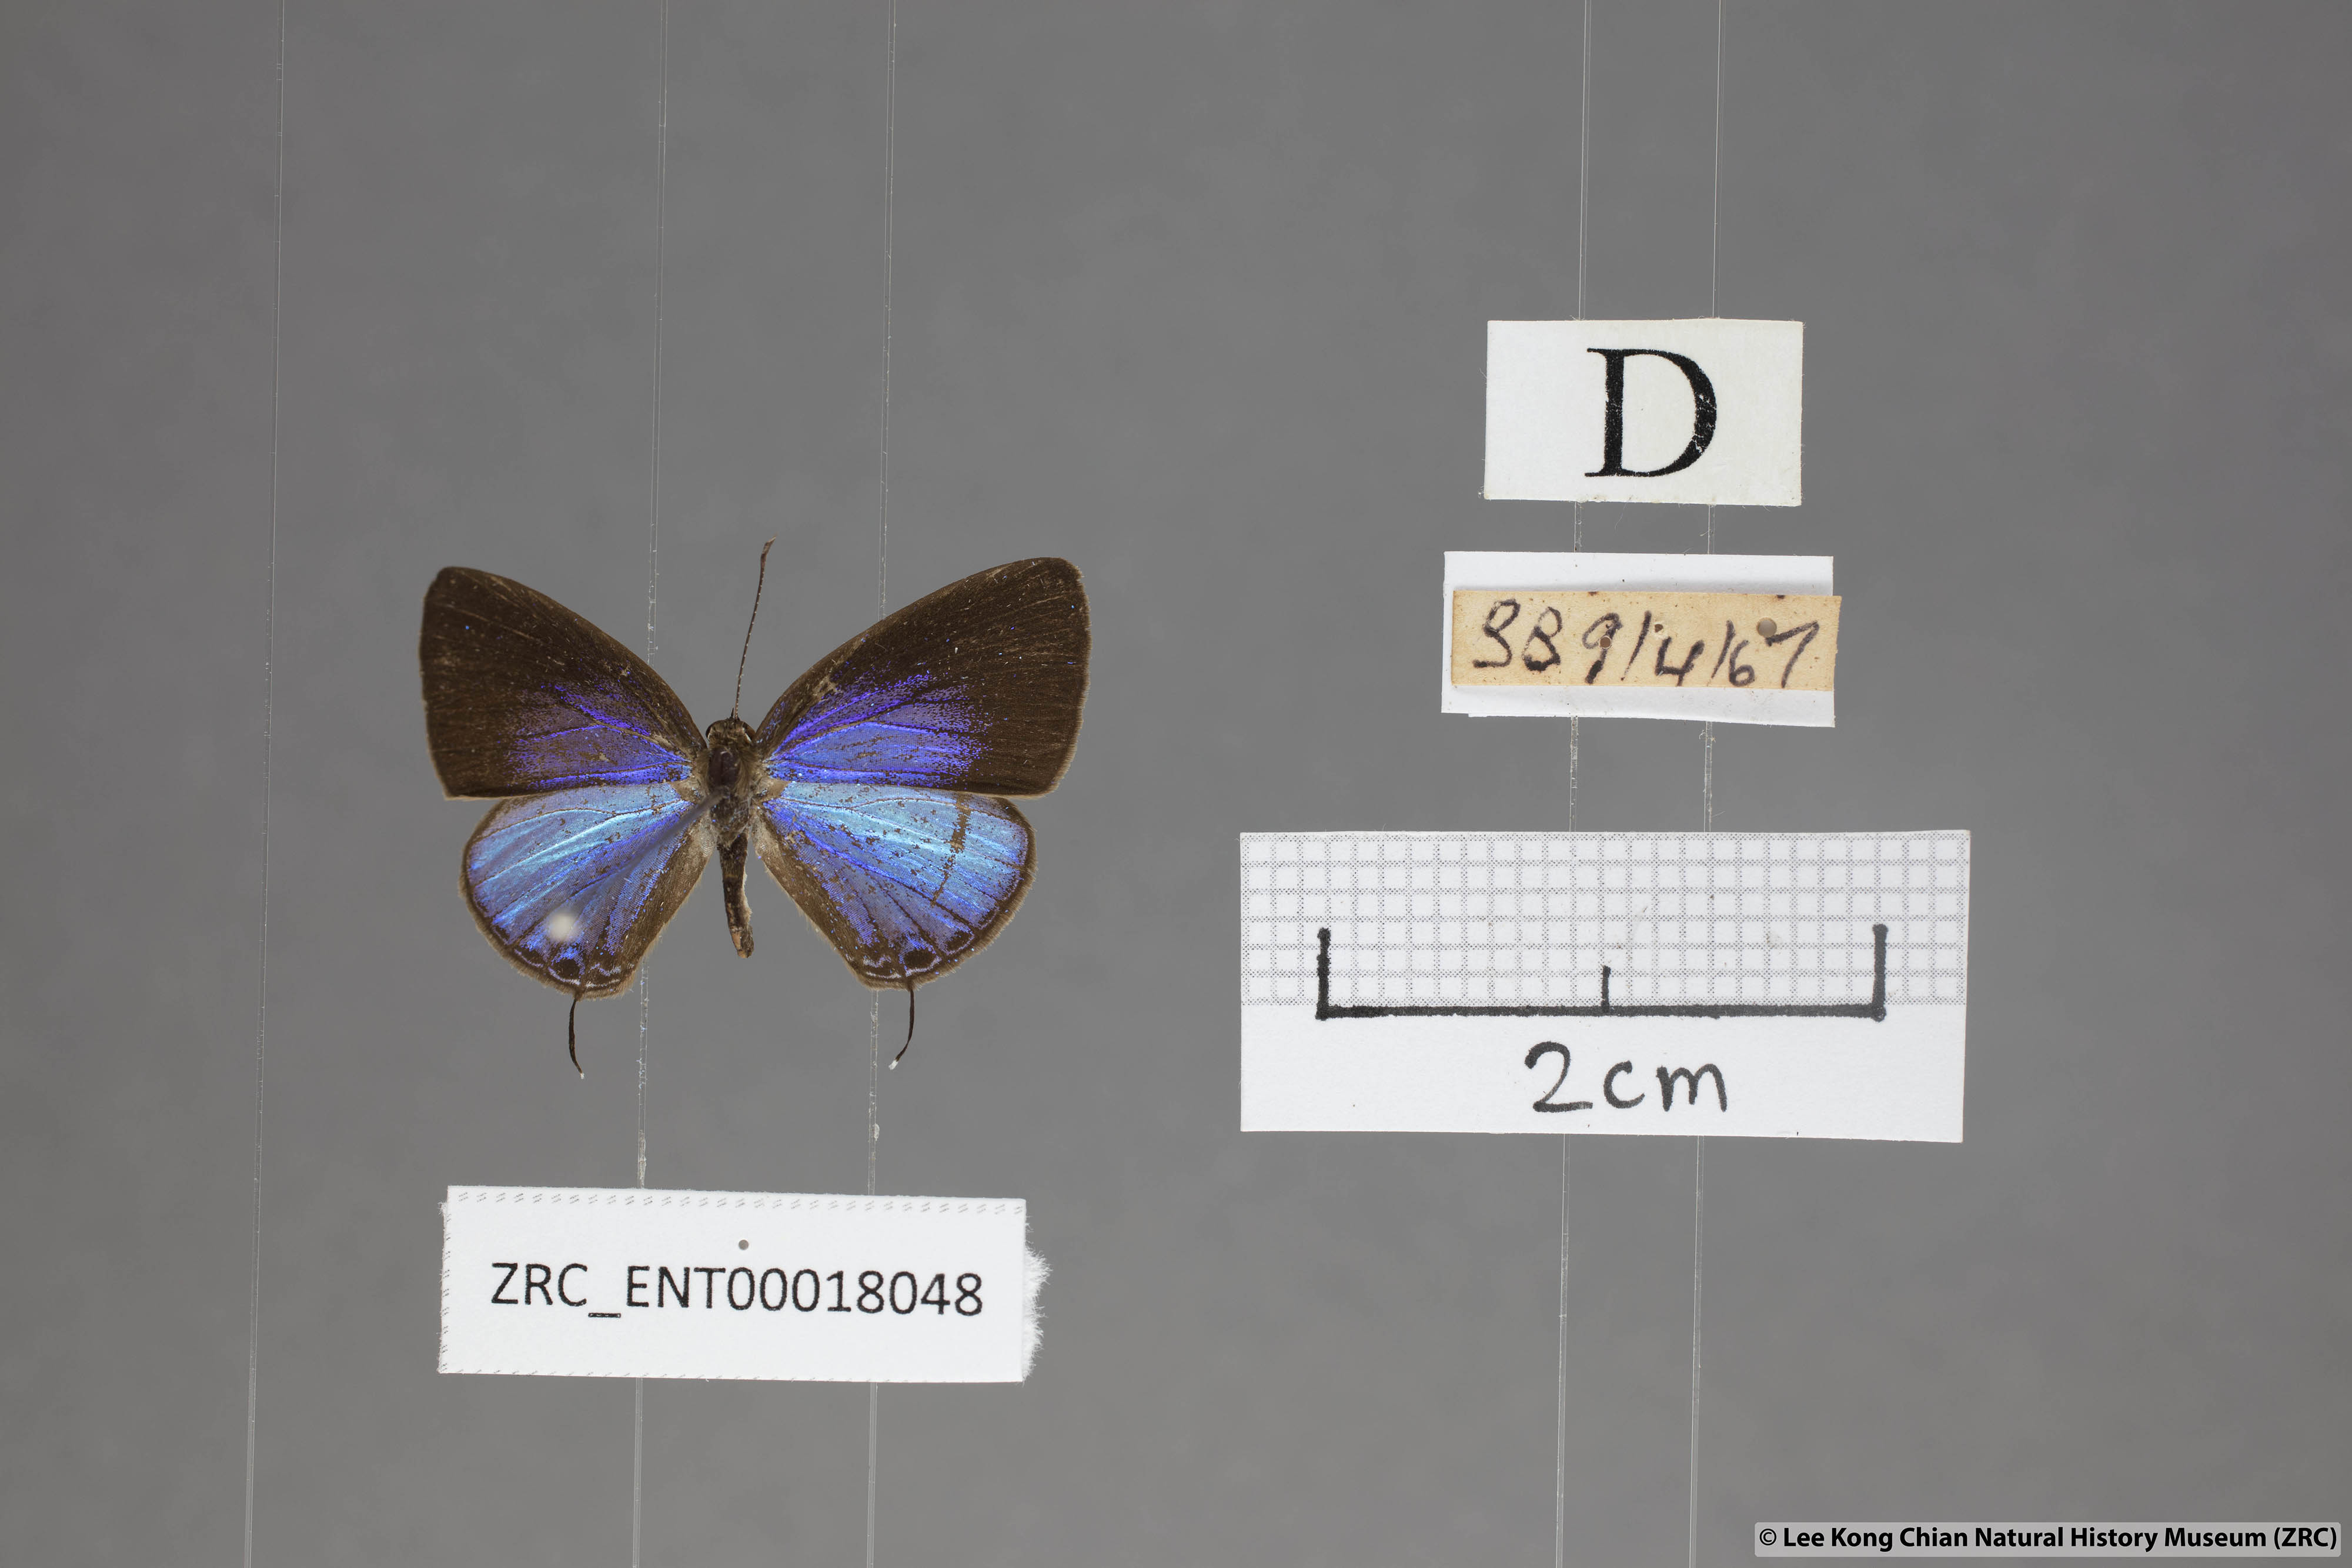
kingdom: Animalia
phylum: Arthropoda
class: Insecta
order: Lepidoptera
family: Lycaenidae
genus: Jamides
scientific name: Jamides bochus
